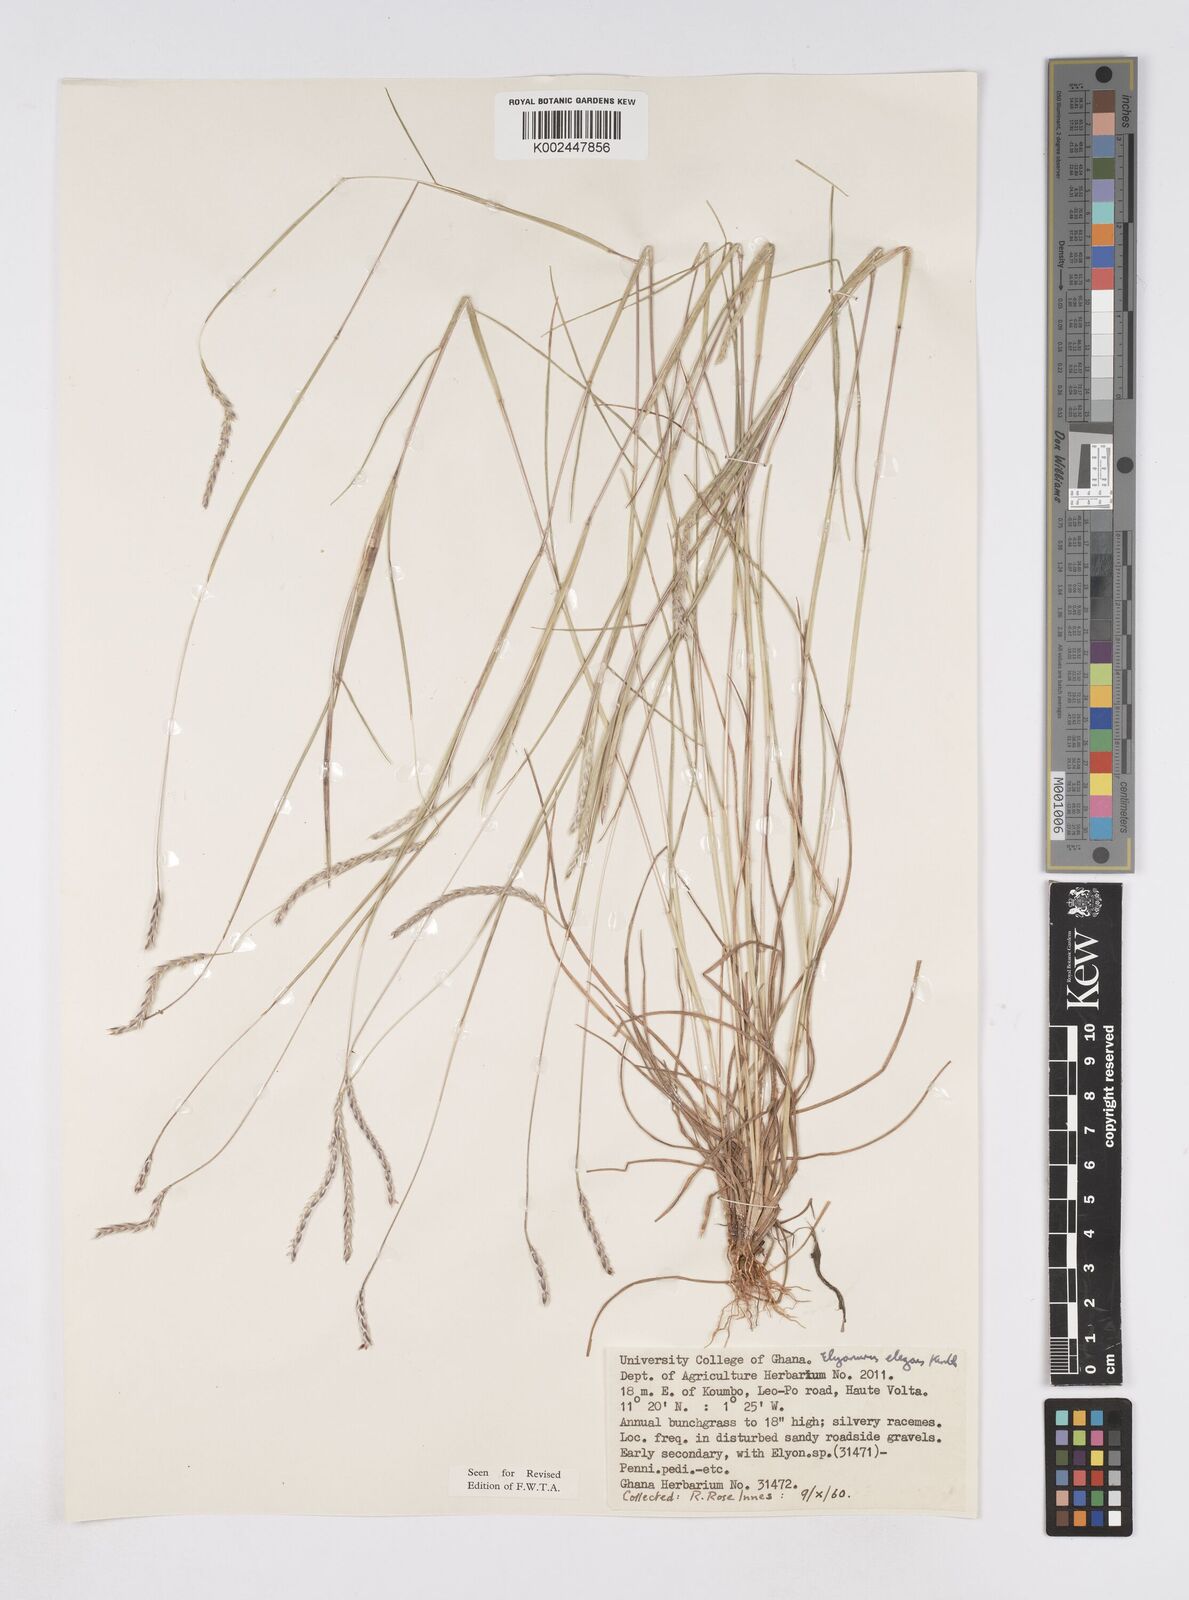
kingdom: Plantae
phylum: Tracheophyta
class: Liliopsida
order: Poales
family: Poaceae
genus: Elionurus
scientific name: Elionurus elegans
